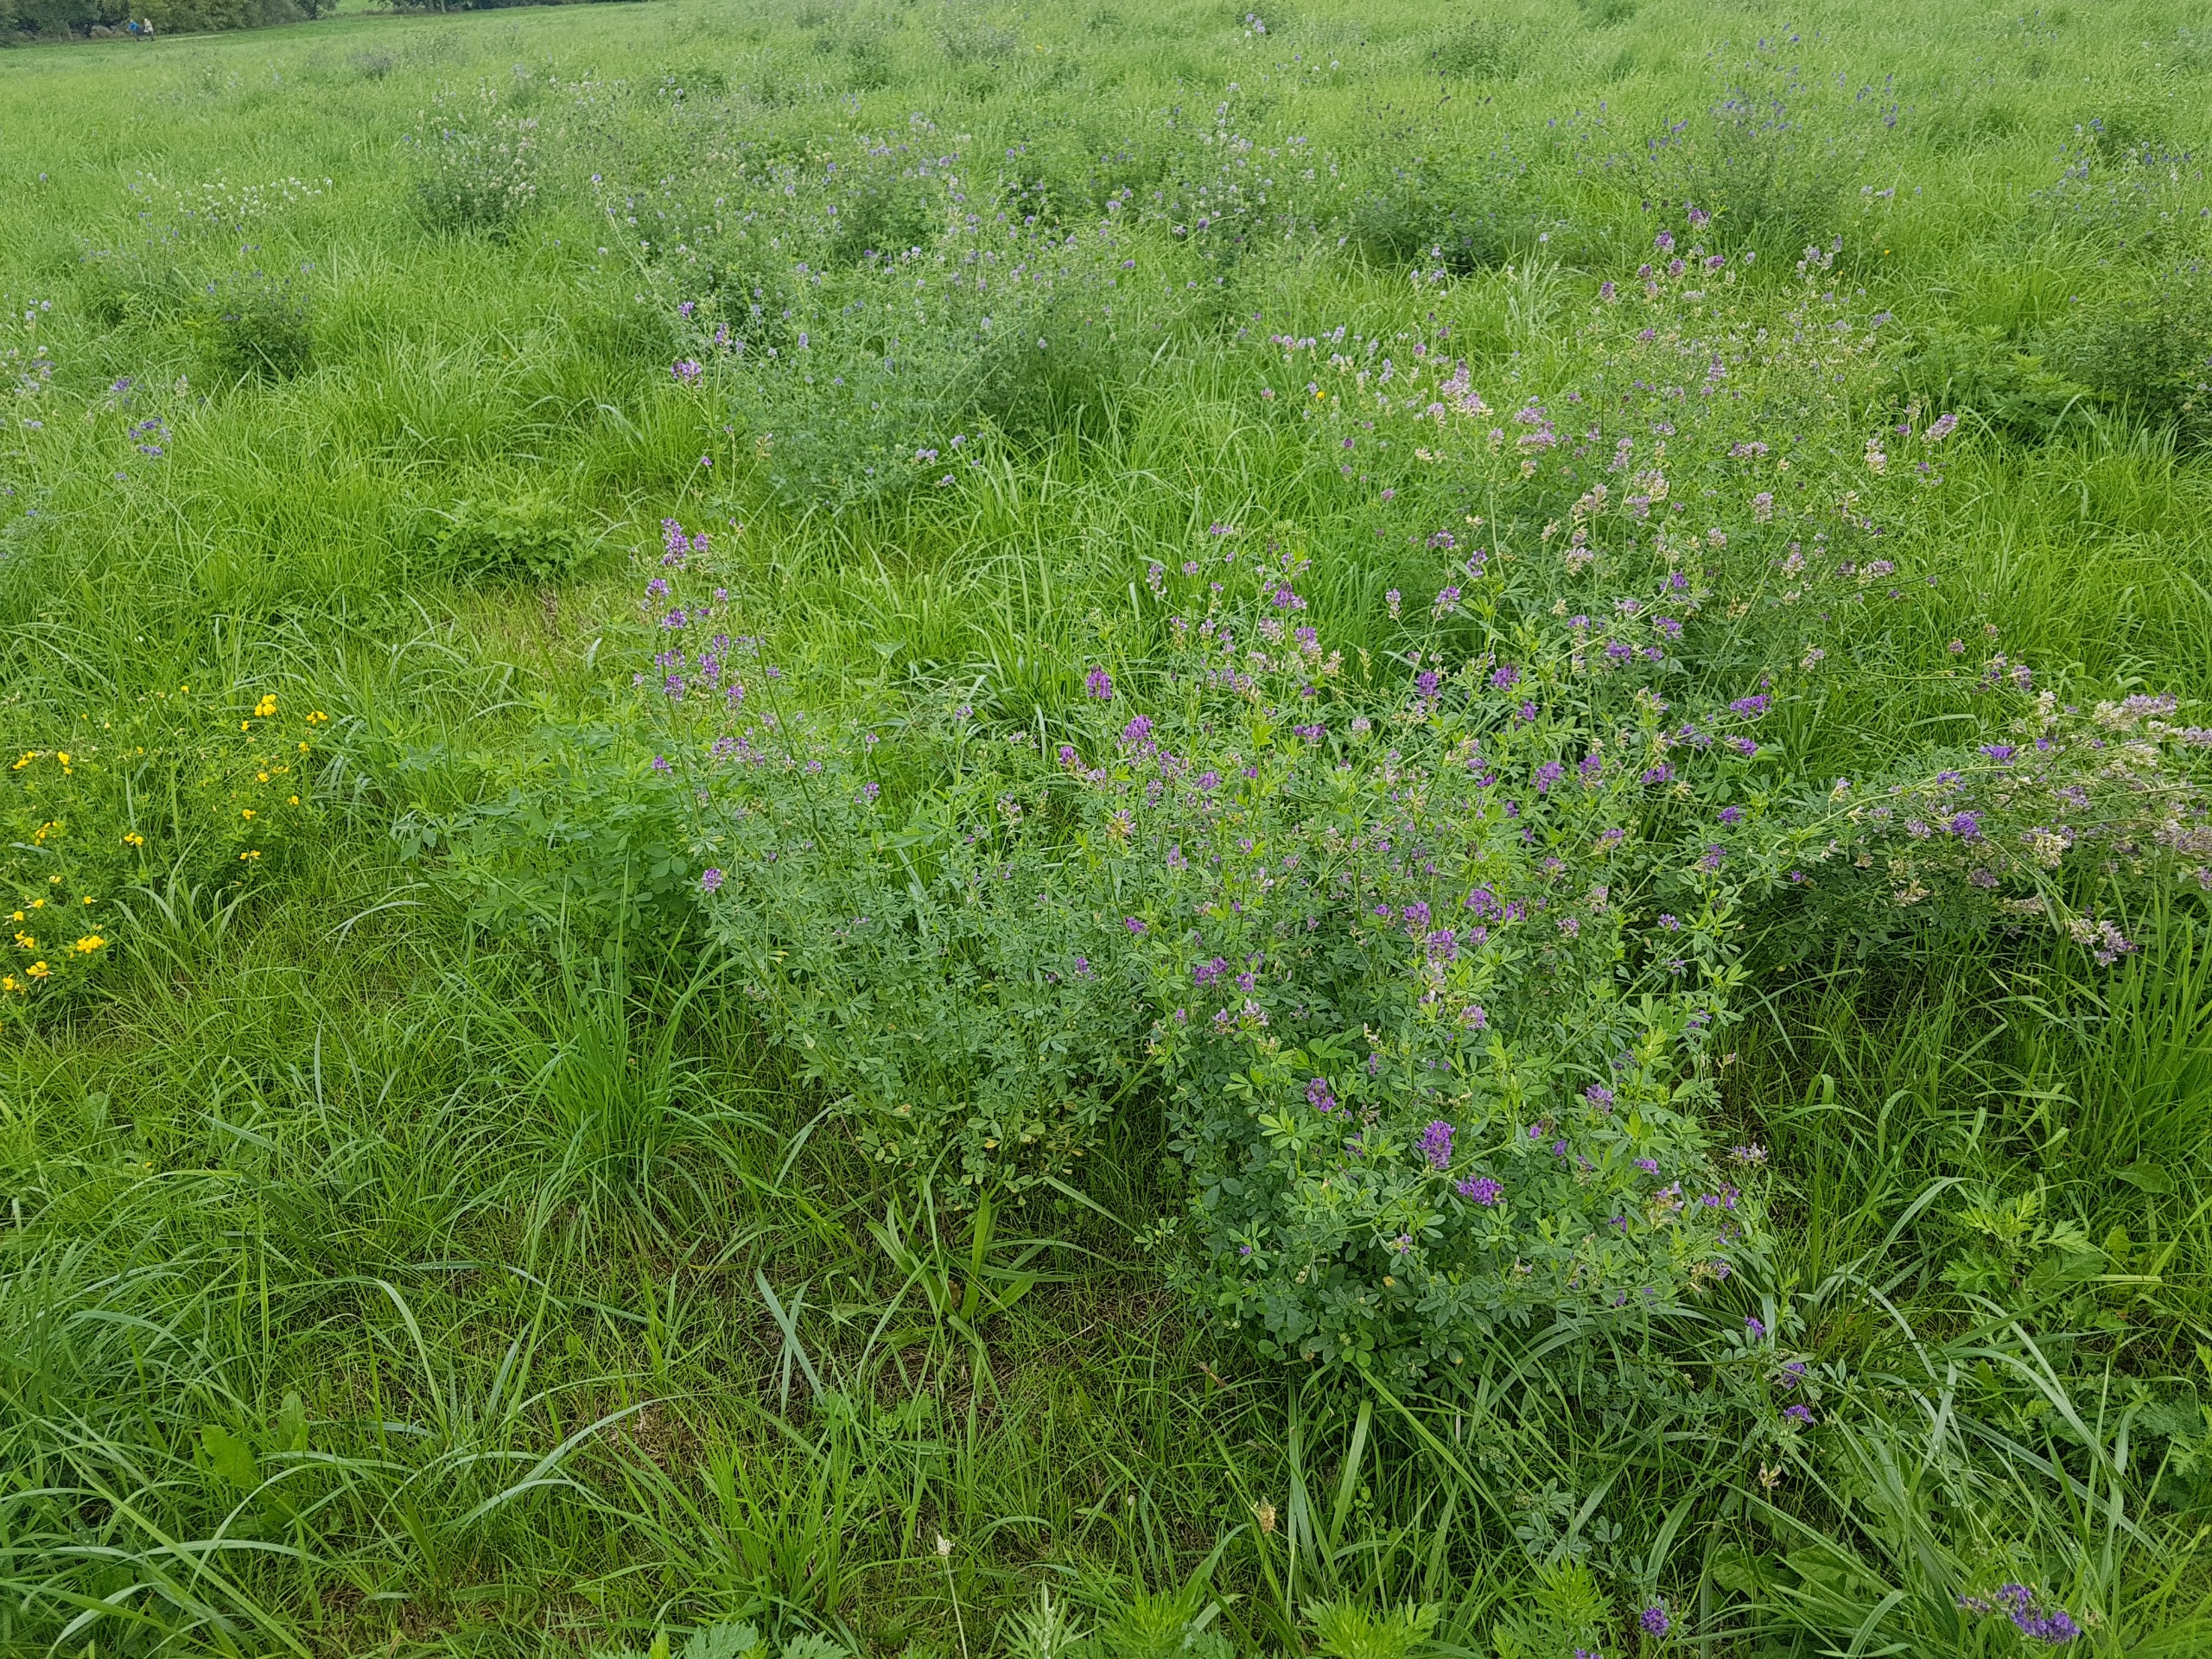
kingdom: Plantae
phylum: Tracheophyta
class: Magnoliopsida
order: Fabales
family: Fabaceae
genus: Medicago
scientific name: Medicago sativa
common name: Lucerne
